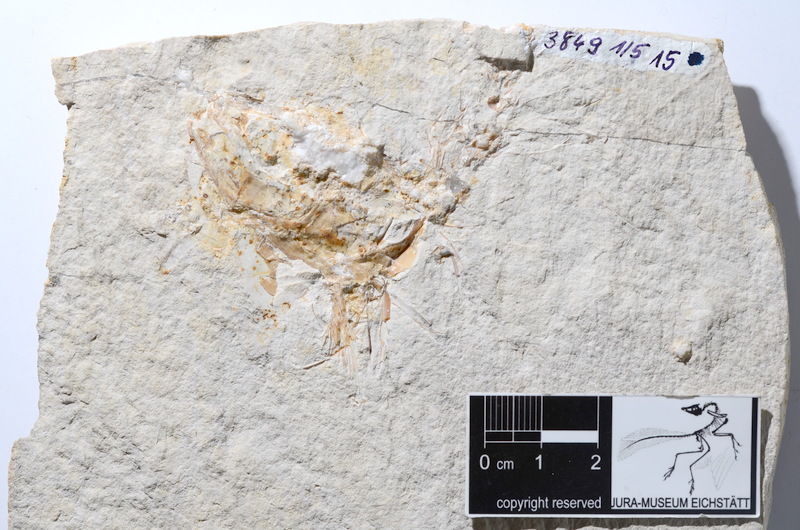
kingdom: Animalia
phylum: Chordata
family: Ascalaboidae
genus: Tharsis
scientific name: Tharsis dubius
